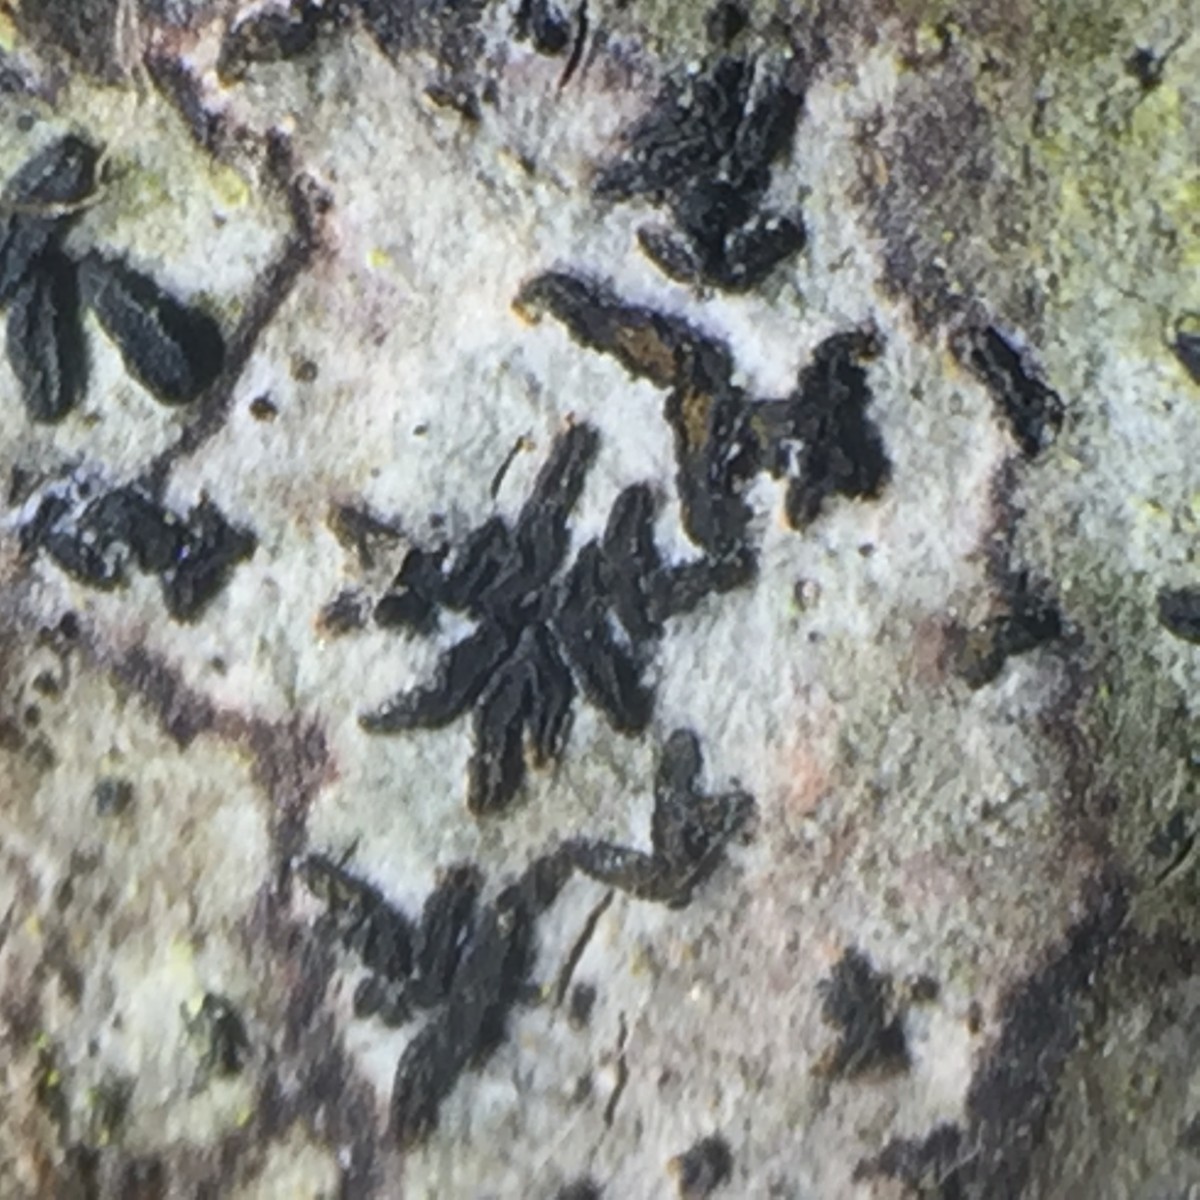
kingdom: Fungi
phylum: Ascomycota
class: Arthoniomycetes
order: Arthoniales
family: Lecanographaceae
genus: Alyxoria
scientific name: Alyxoria ochrocheila
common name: rødpudret bogstavlav
